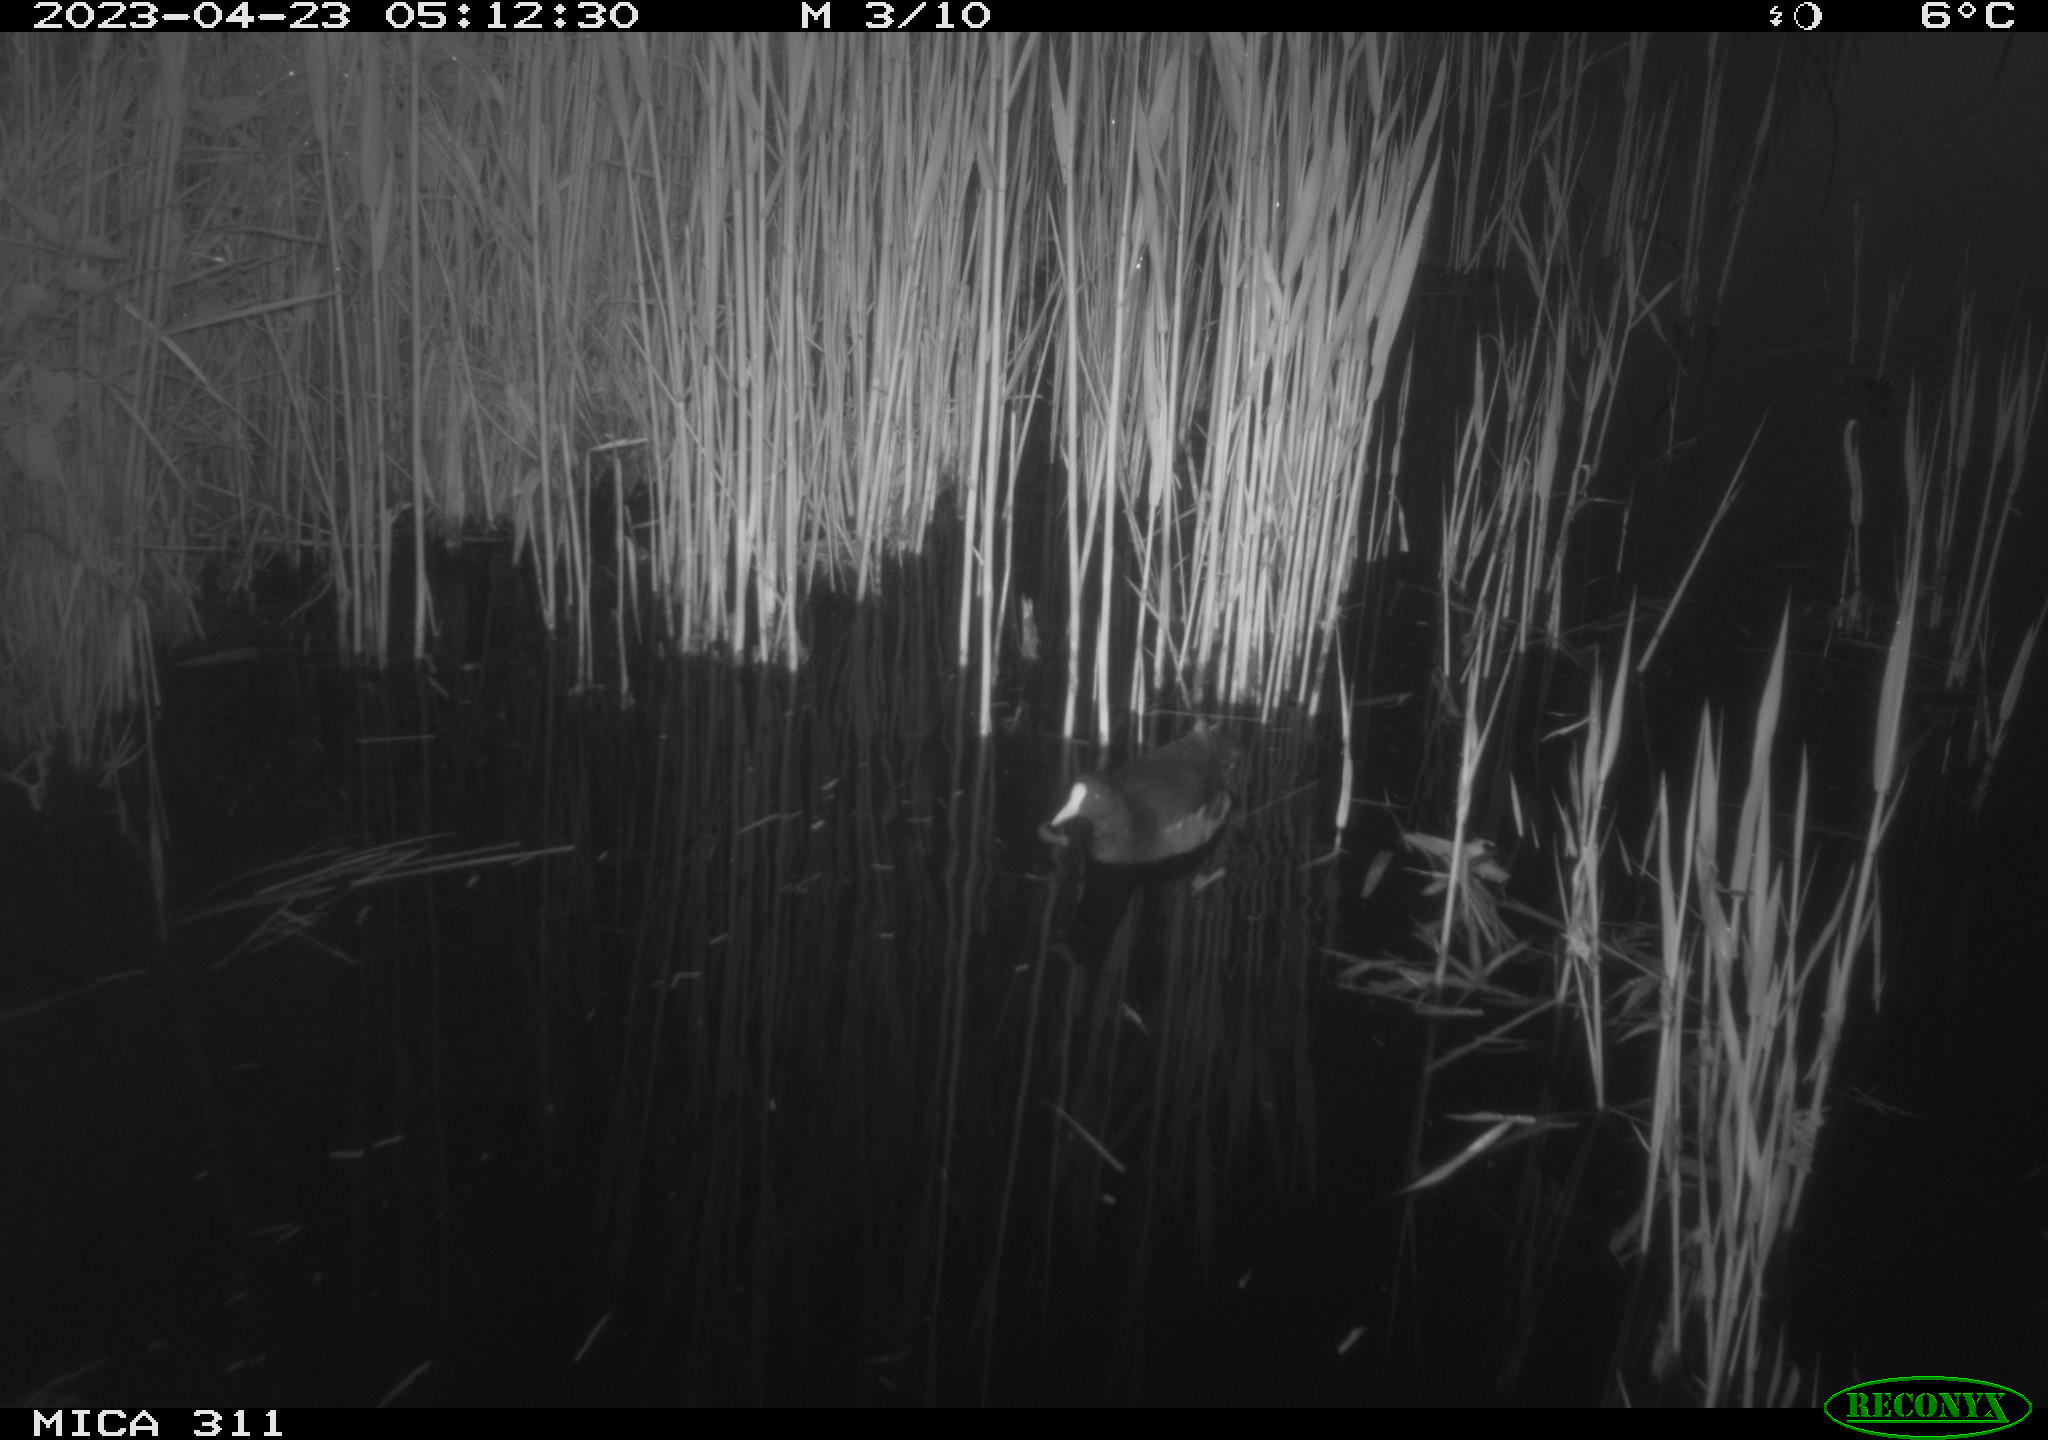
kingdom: Animalia
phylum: Chordata
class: Aves
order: Gruiformes
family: Rallidae
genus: Gallinula
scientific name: Gallinula chloropus
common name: Common moorhen
